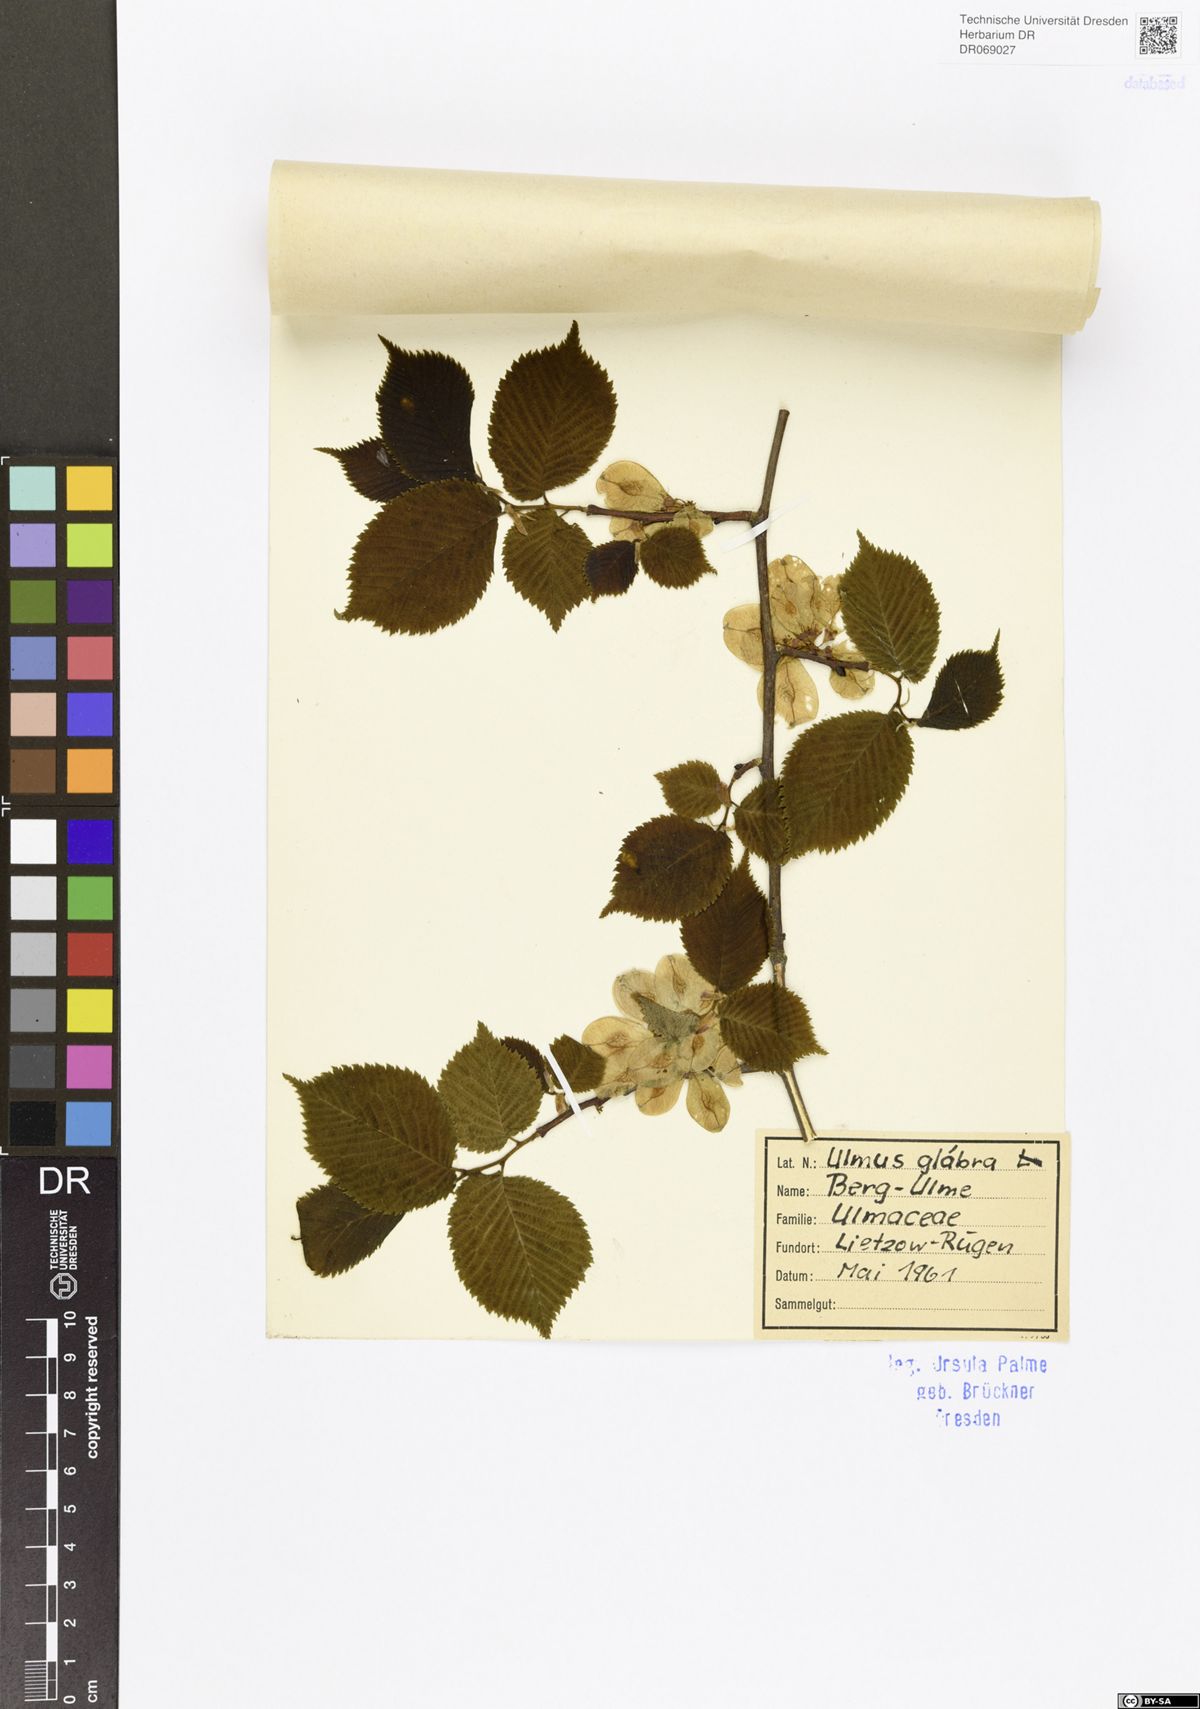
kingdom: Plantae
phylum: Tracheophyta
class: Magnoliopsida
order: Rosales
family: Ulmaceae
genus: Ulmus
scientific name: Ulmus glabra
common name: Wych elm
